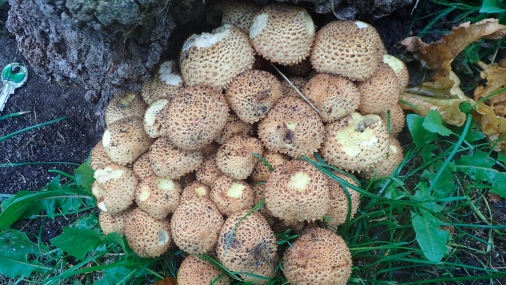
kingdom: Fungi
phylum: Basidiomycota
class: Agaricomycetes
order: Agaricales
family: Strophariaceae
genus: Pholiota
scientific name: Pholiota squarrosa
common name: krumskællet skælhat
